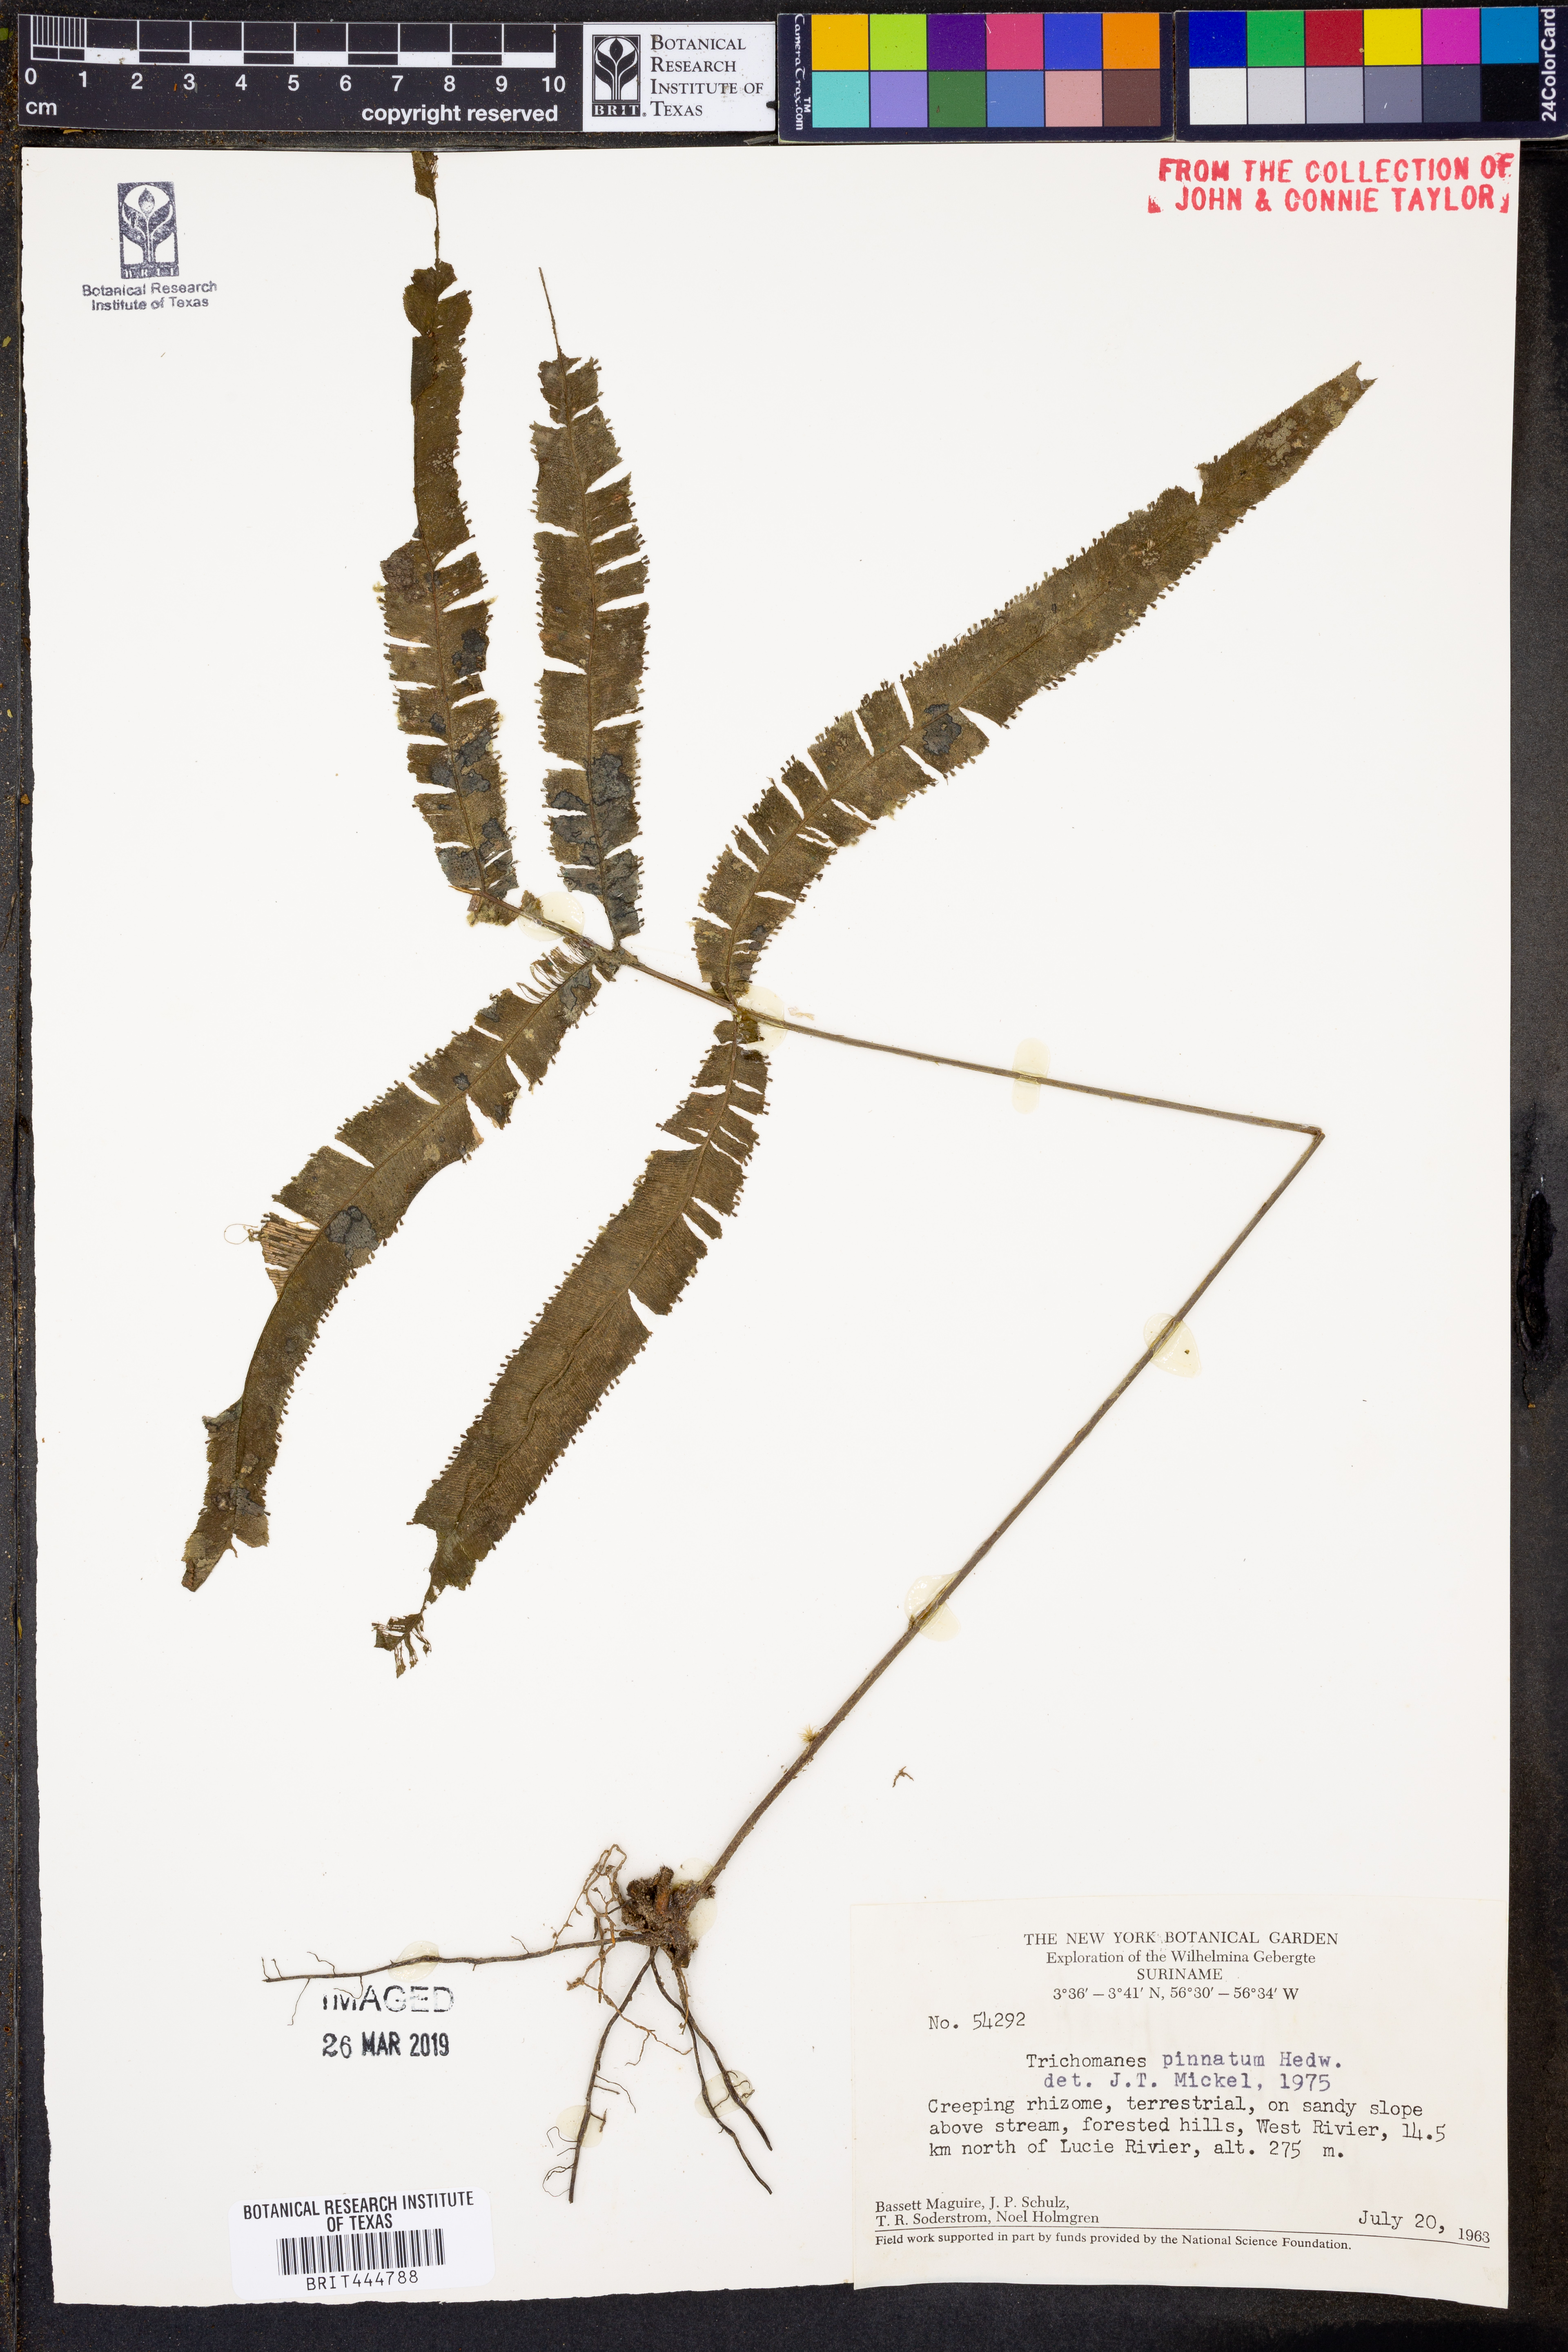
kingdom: Plantae
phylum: Tracheophyta
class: Polypodiopsida
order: Hymenophyllales
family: Hymenophyllaceae
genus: Trichomanes
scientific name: Trichomanes pinnatum
